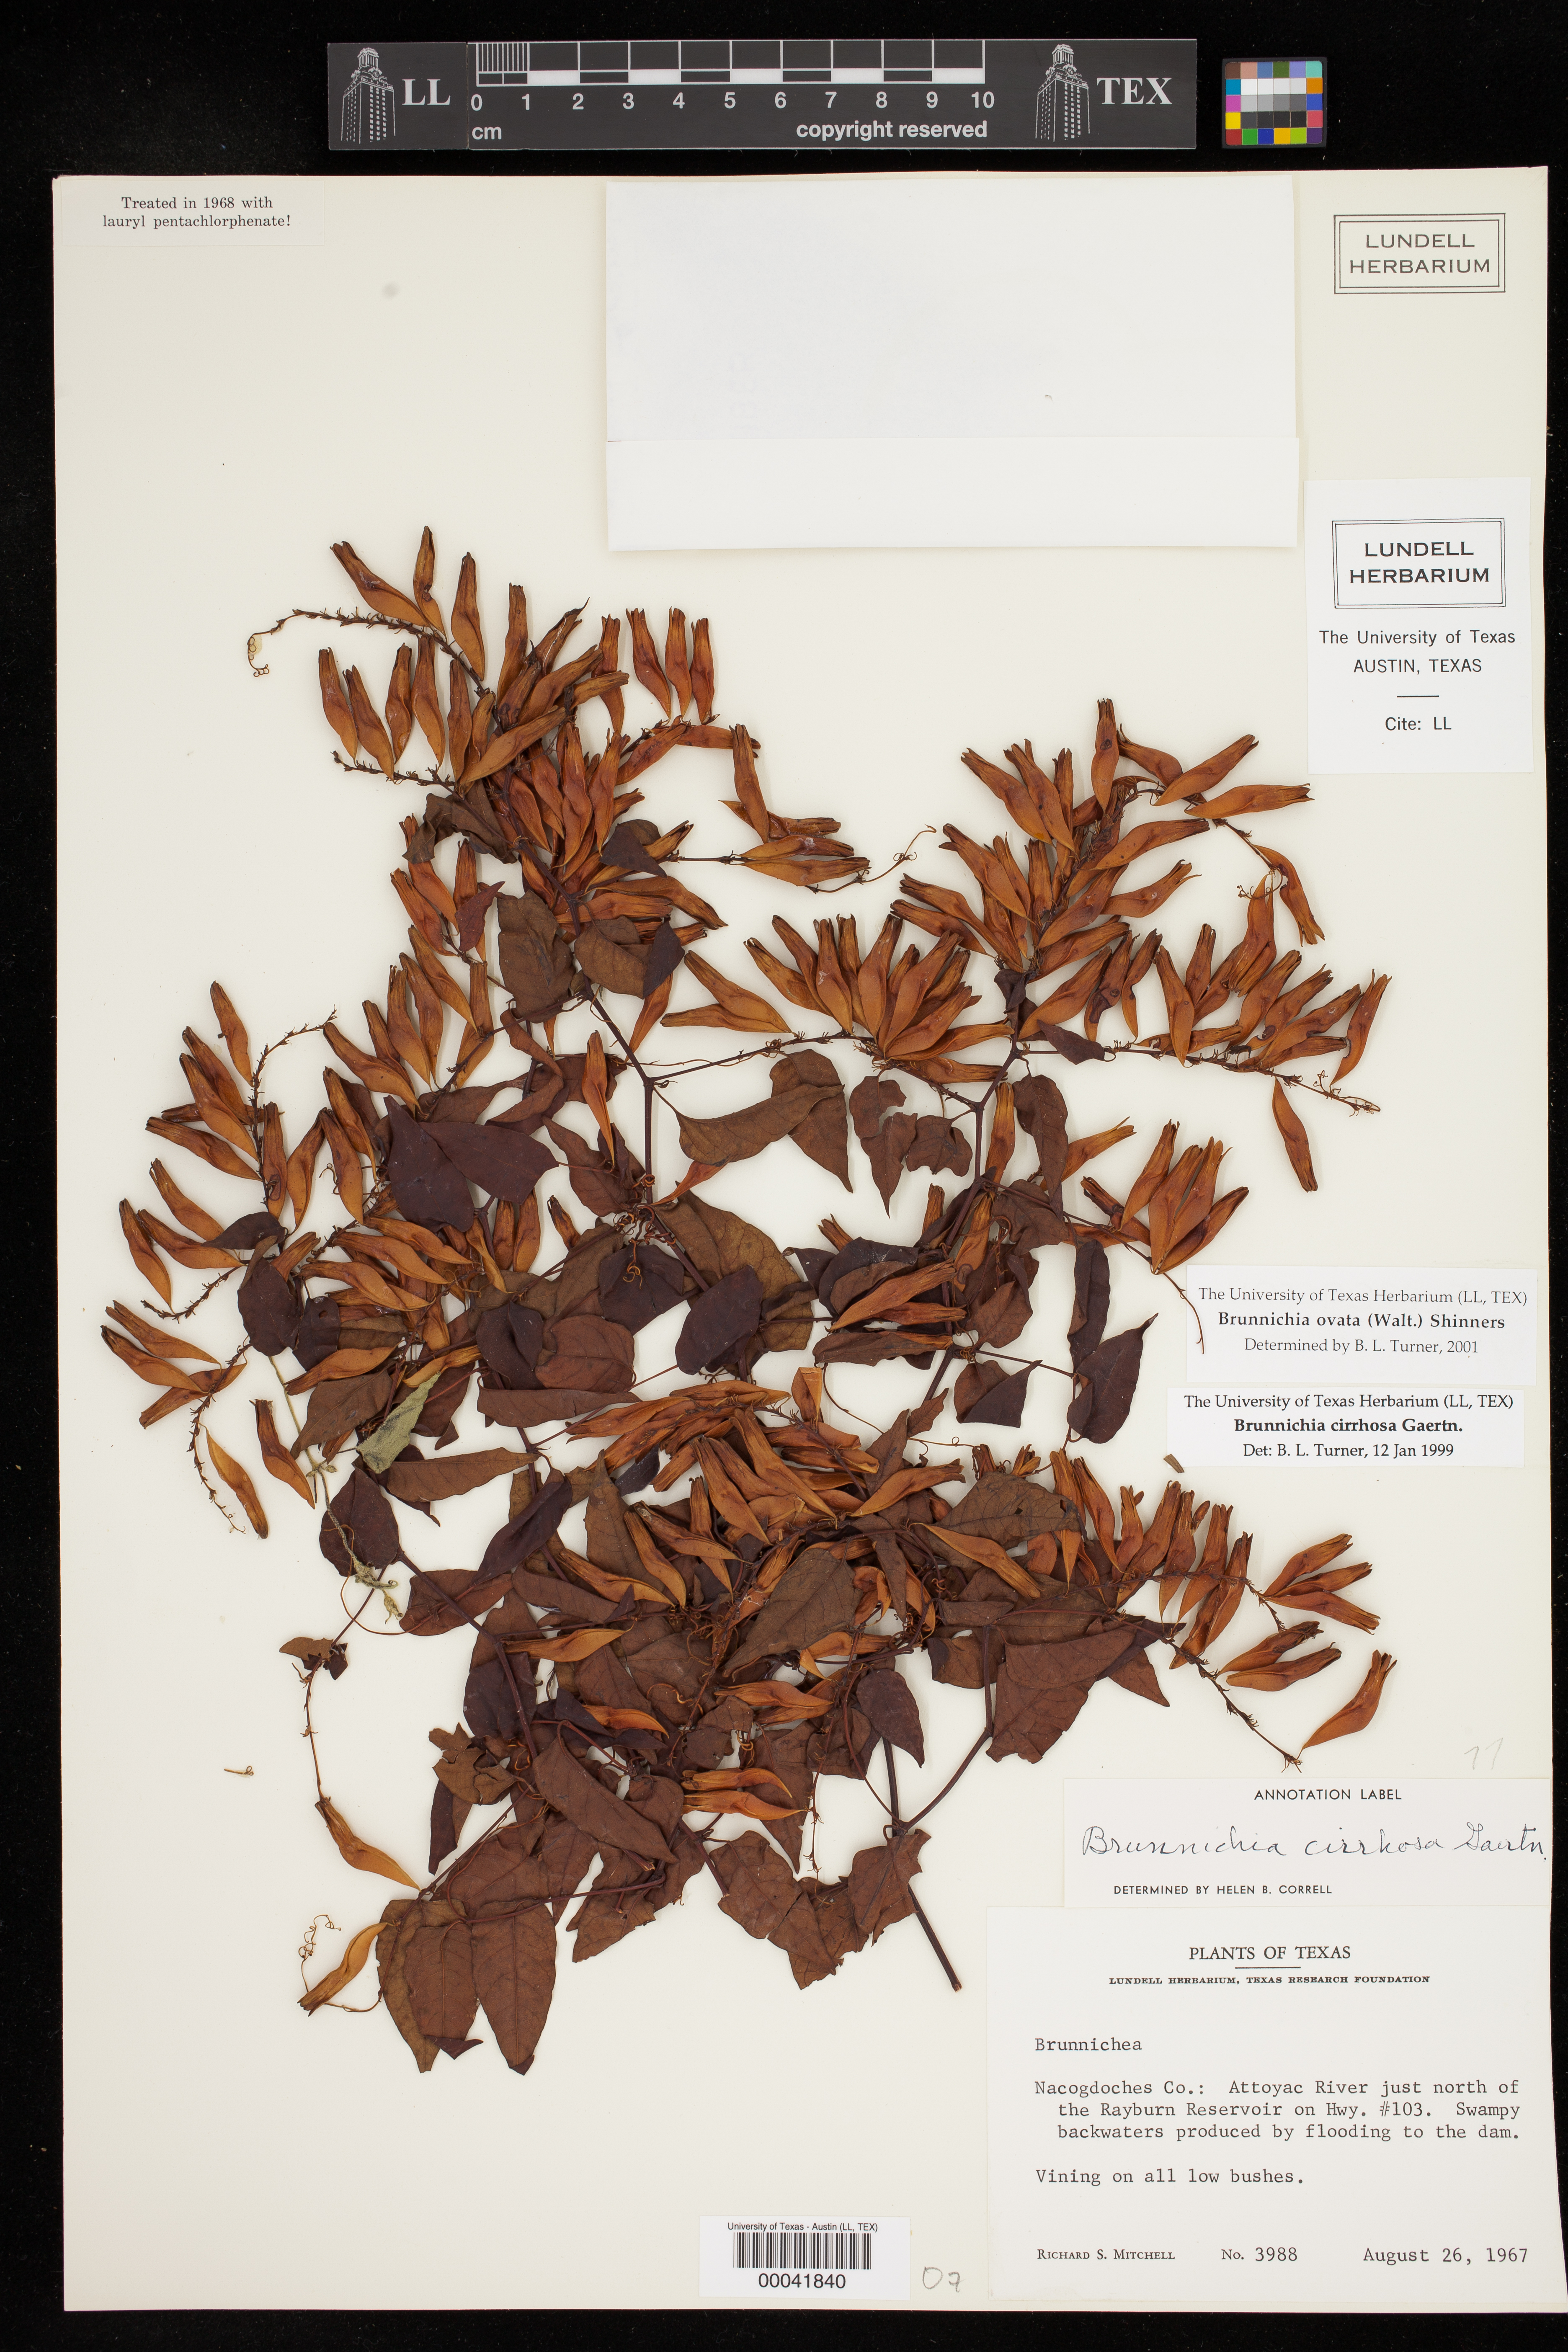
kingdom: Plantae
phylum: Tracheophyta
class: Magnoliopsida
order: Caryophyllales
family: Polygonaceae
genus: Brunnichia
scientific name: Brunnichia ovata
